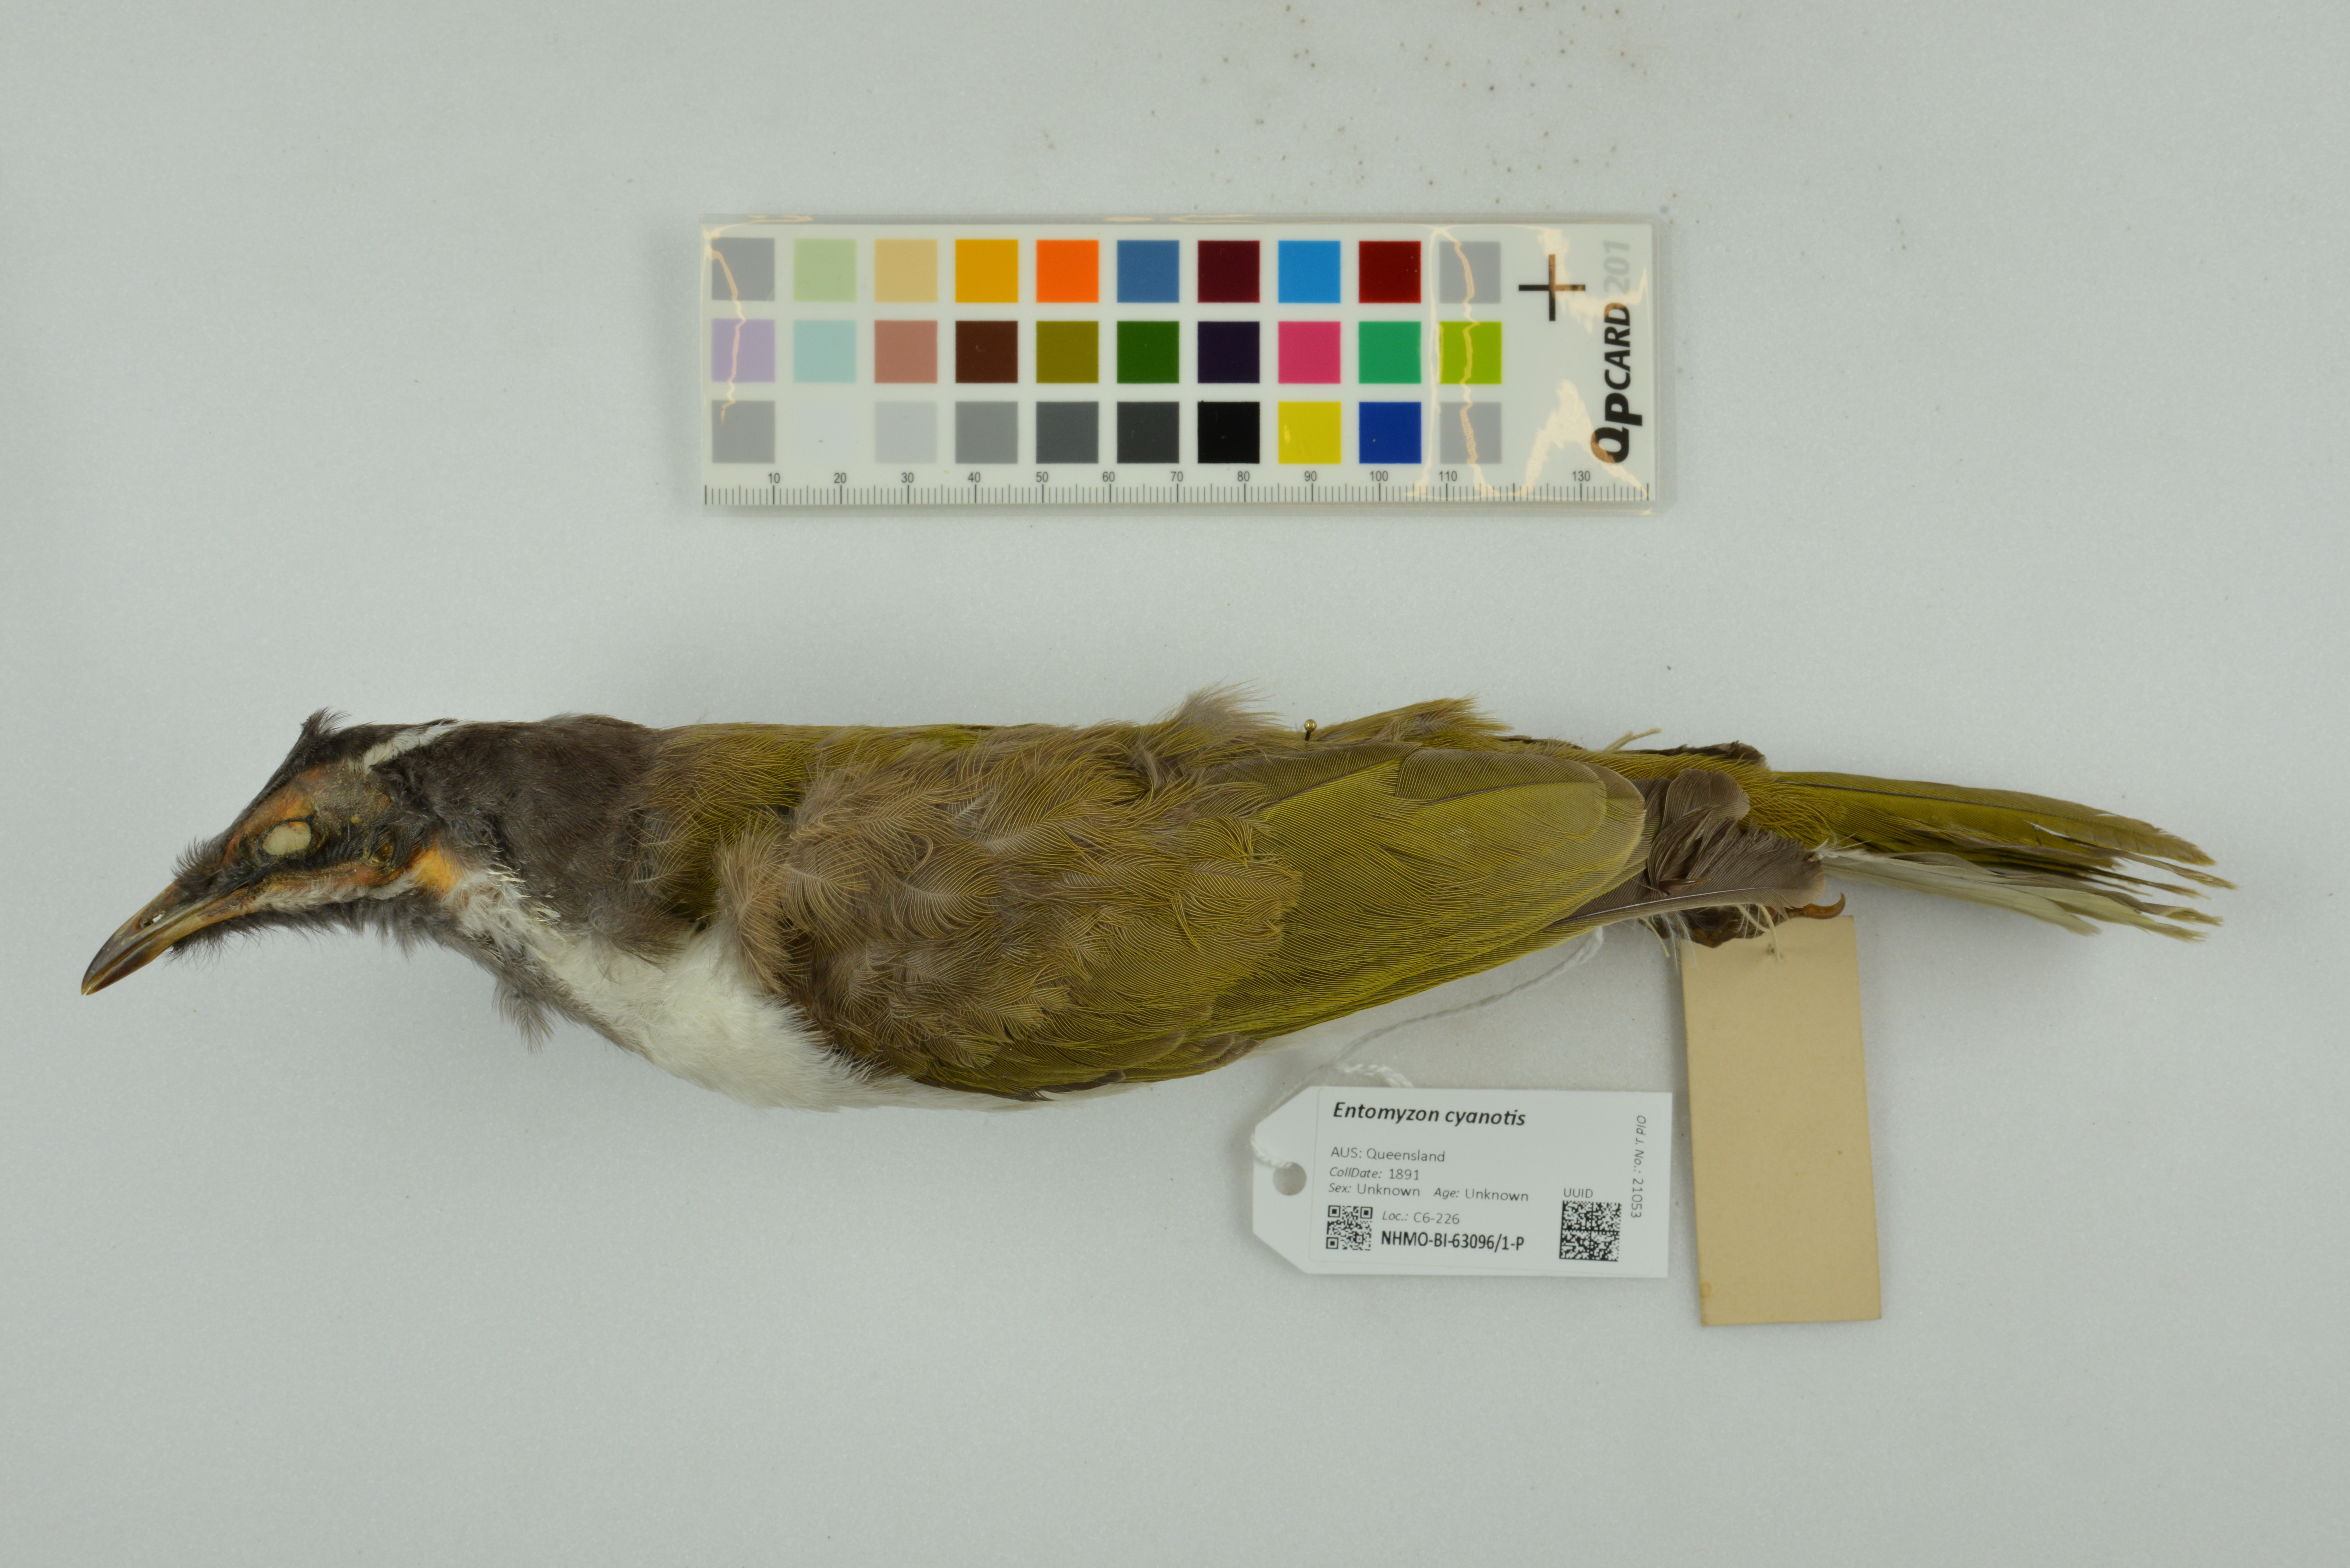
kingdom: Animalia
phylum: Chordata
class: Aves
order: Passeriformes
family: Meliphagidae
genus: Entomyzon
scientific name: Entomyzon cyanotis
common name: Blue-faced honeyeater
